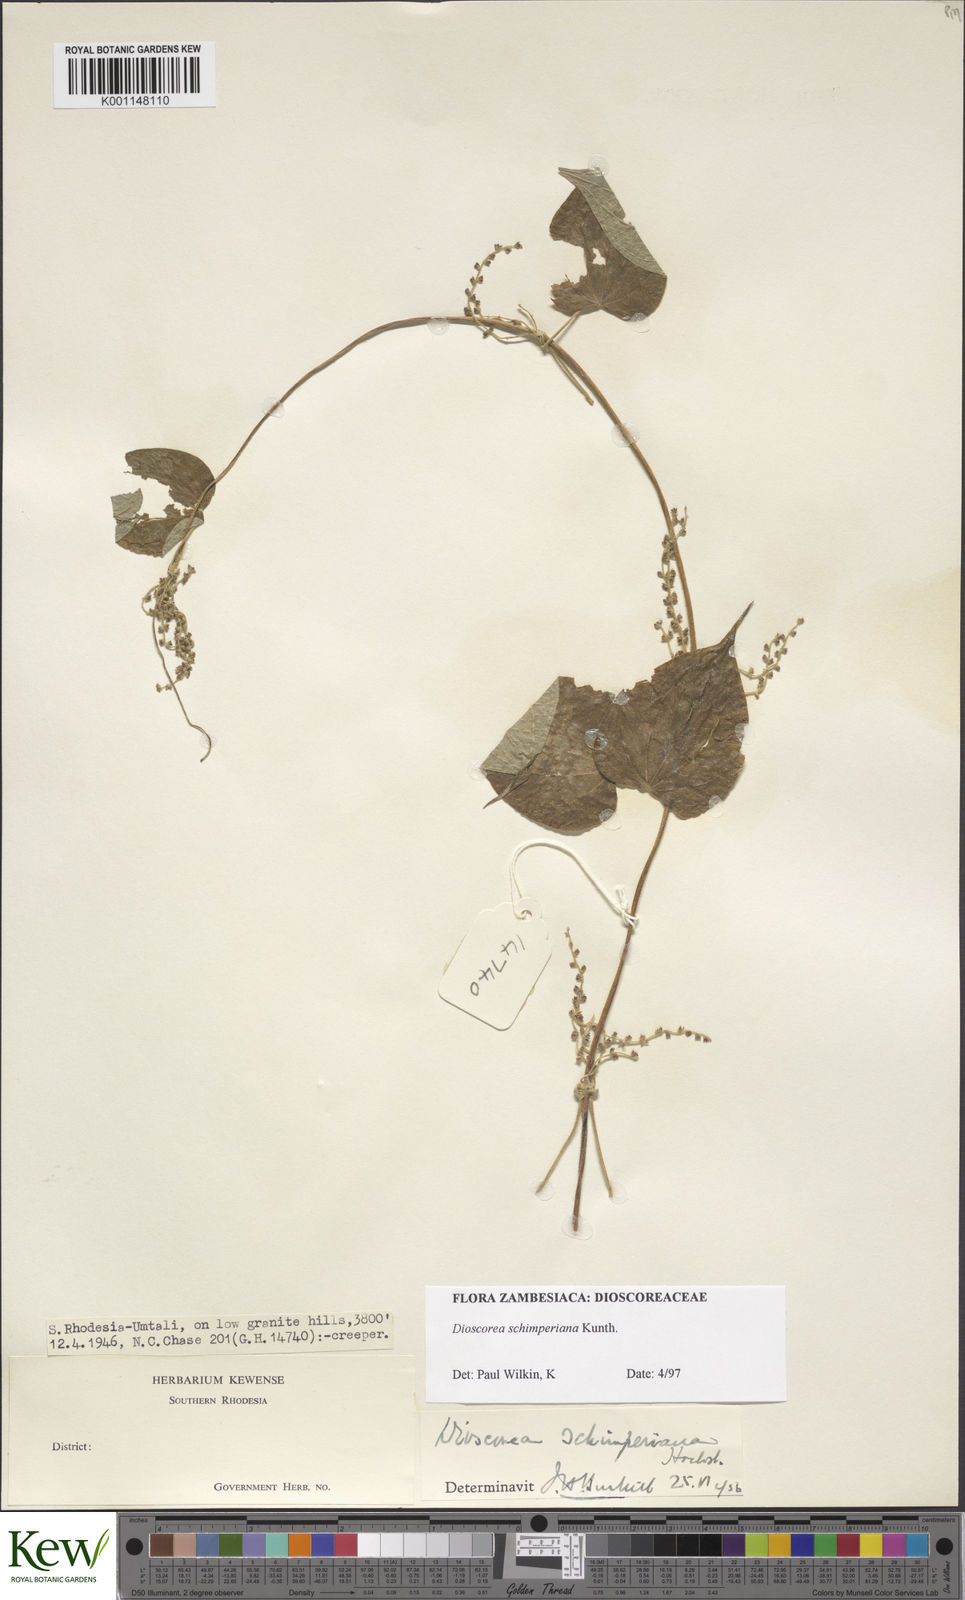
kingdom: Plantae
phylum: Tracheophyta
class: Liliopsida
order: Dioscoreales
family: Dioscoreaceae
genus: Dioscorea
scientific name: Dioscorea schimperiana
